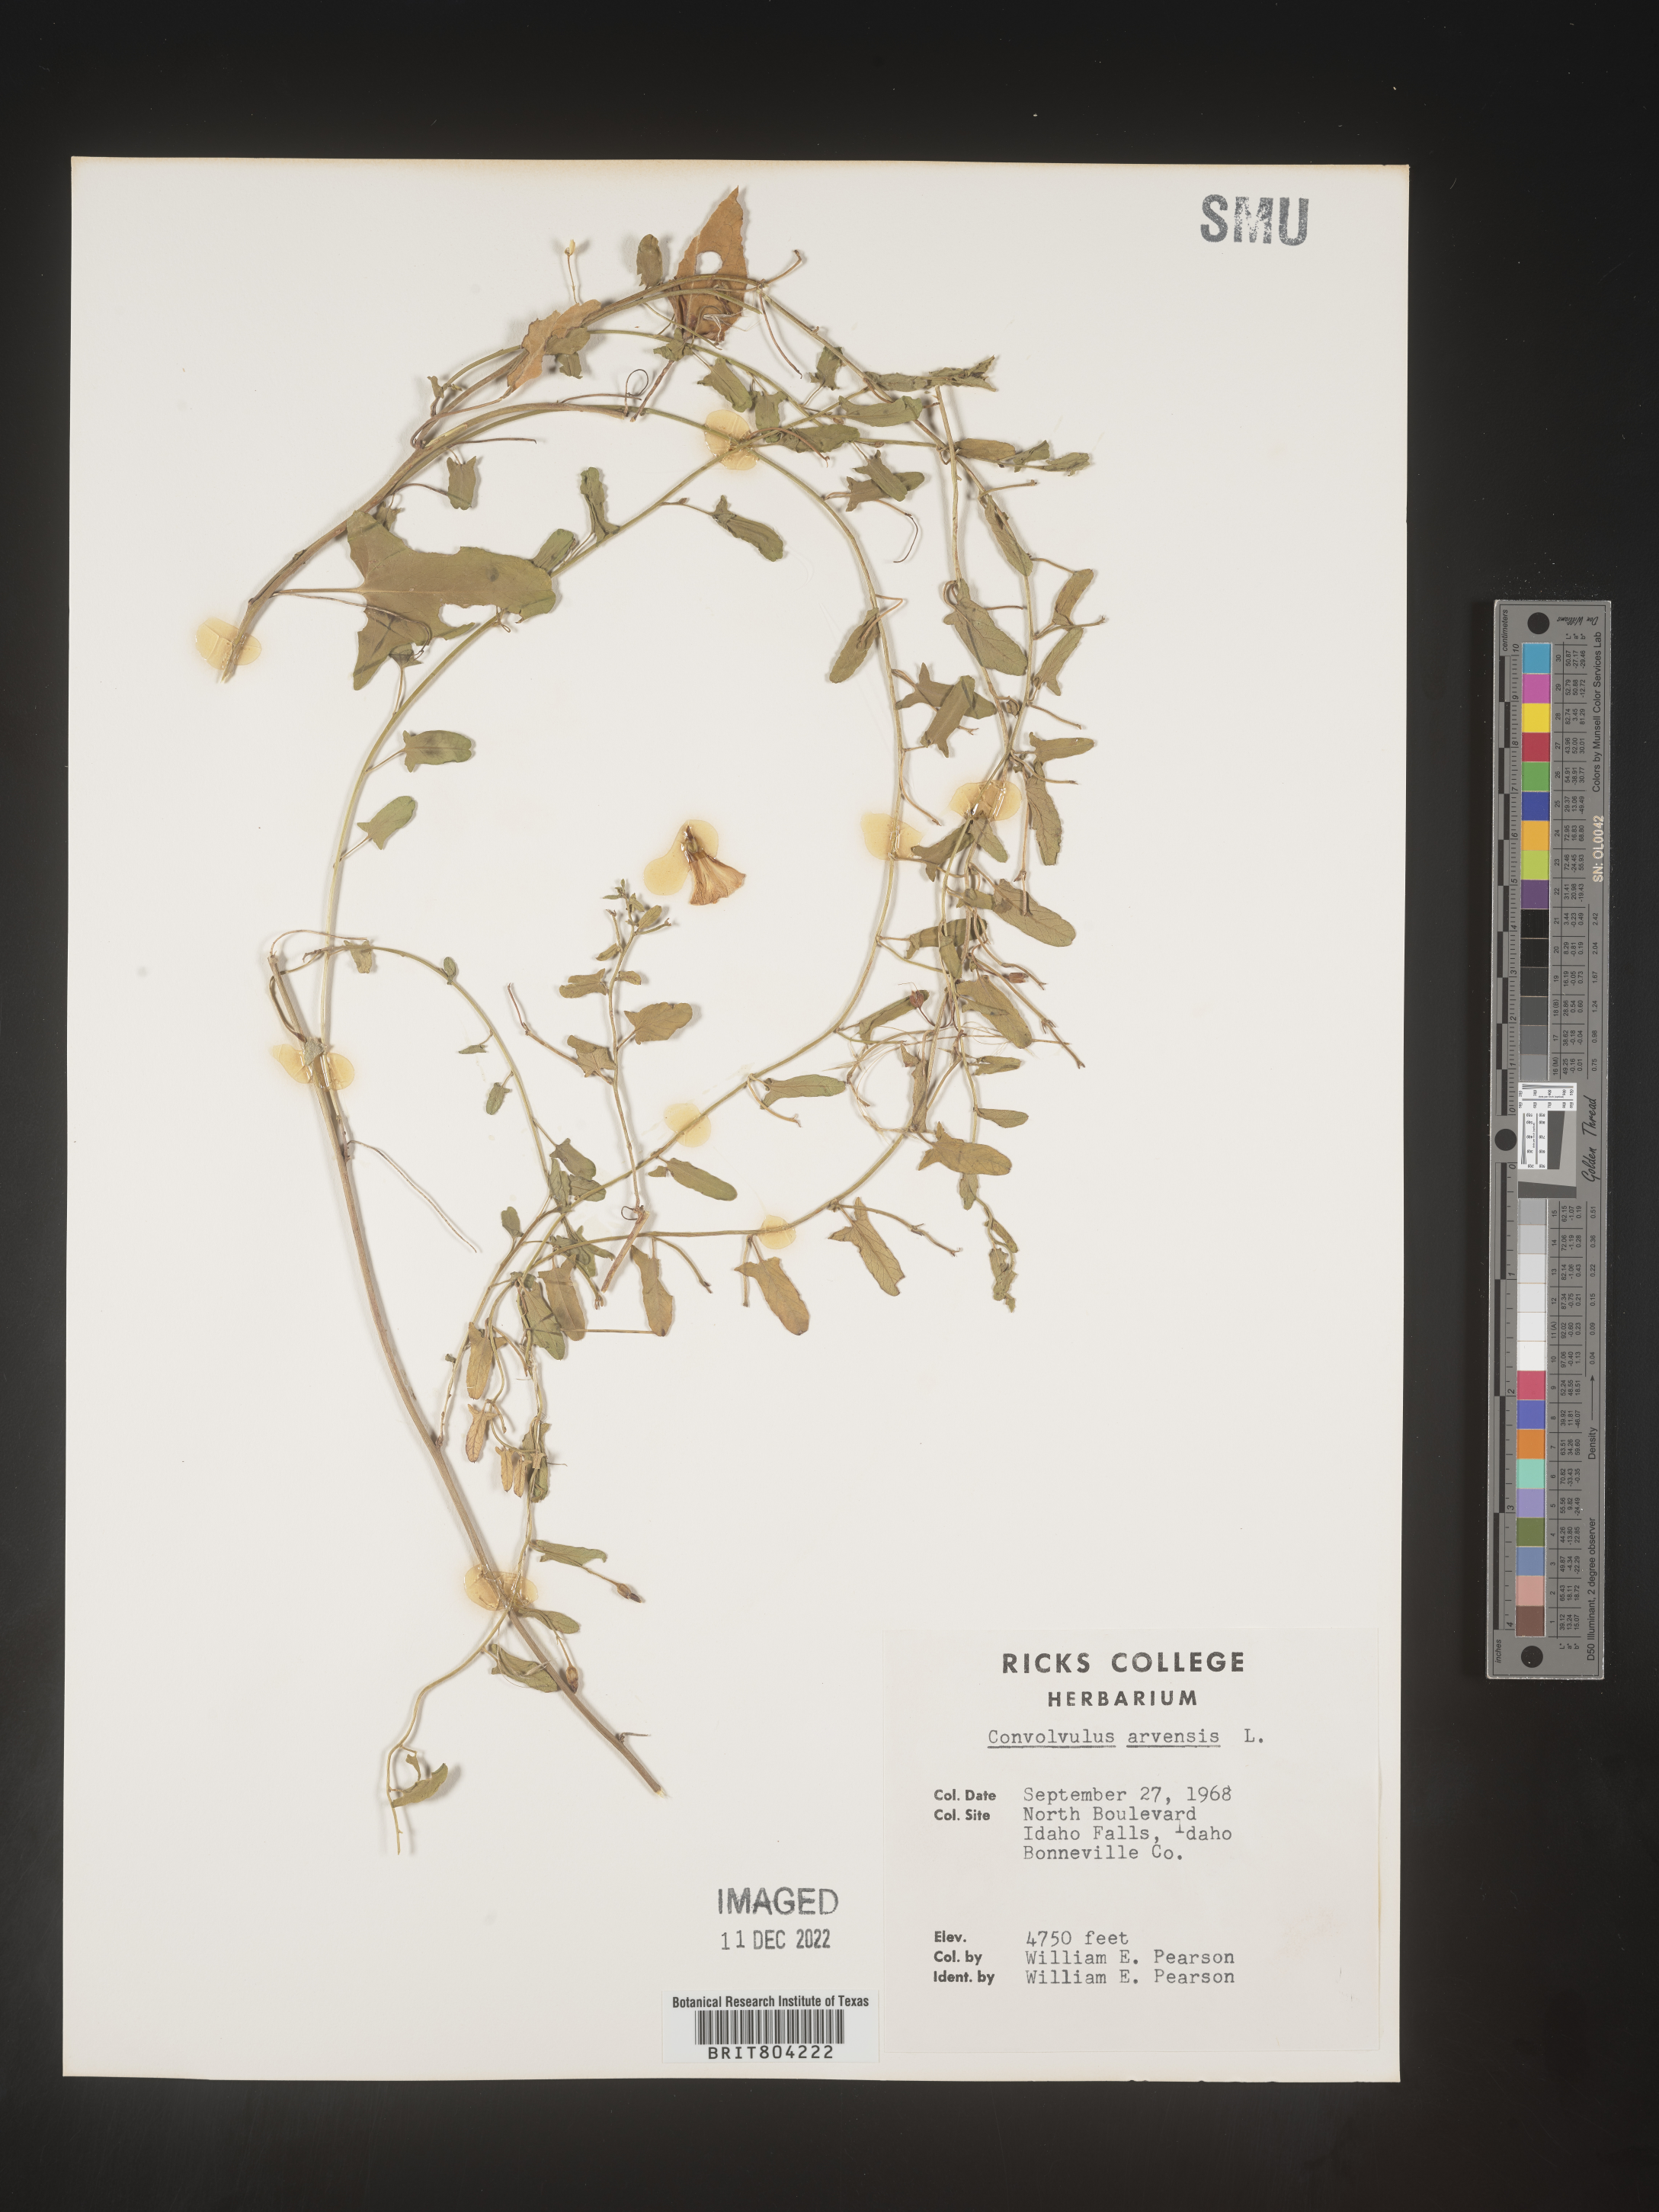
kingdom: Plantae
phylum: Tracheophyta
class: Magnoliopsida
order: Solanales
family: Convolvulaceae
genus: Convolvulus
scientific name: Convolvulus arvensis
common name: Field bindweed
